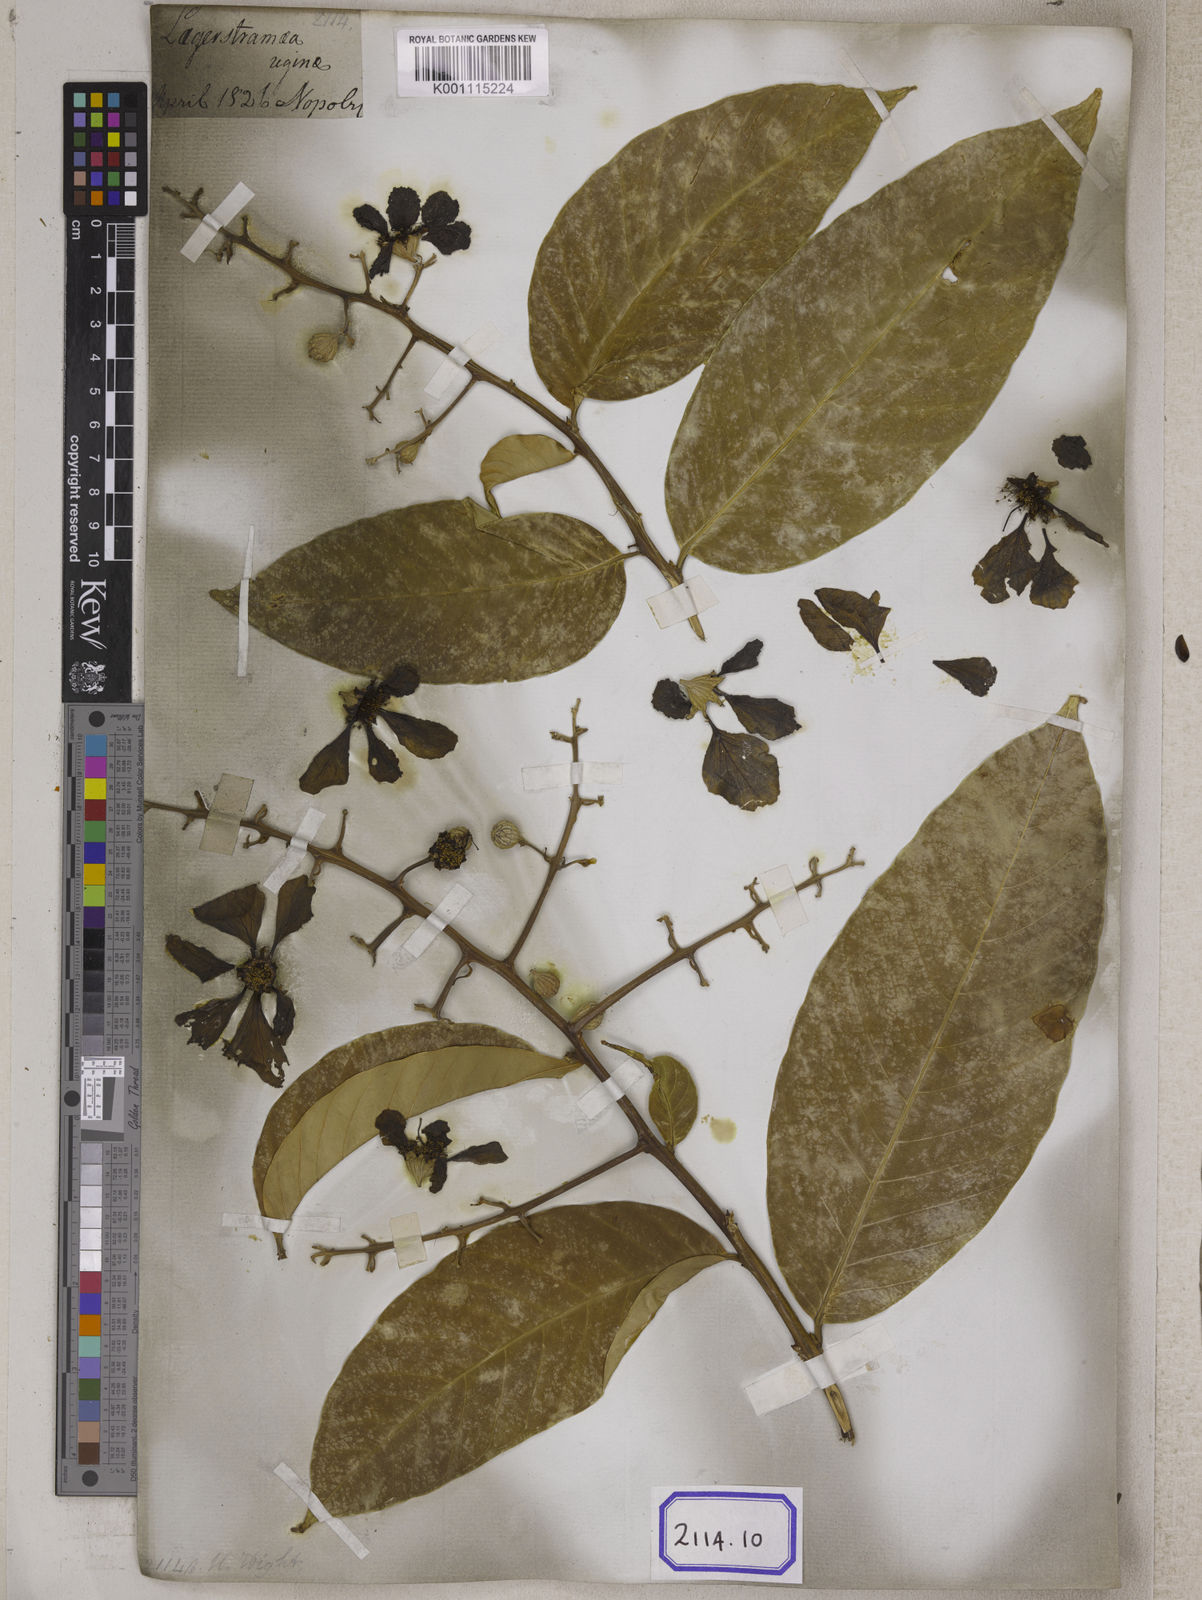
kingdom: Plantae
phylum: Tracheophyta
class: Magnoliopsida
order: Myrtales
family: Lythraceae
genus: Lagerstroemia
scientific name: Lagerstroemia
